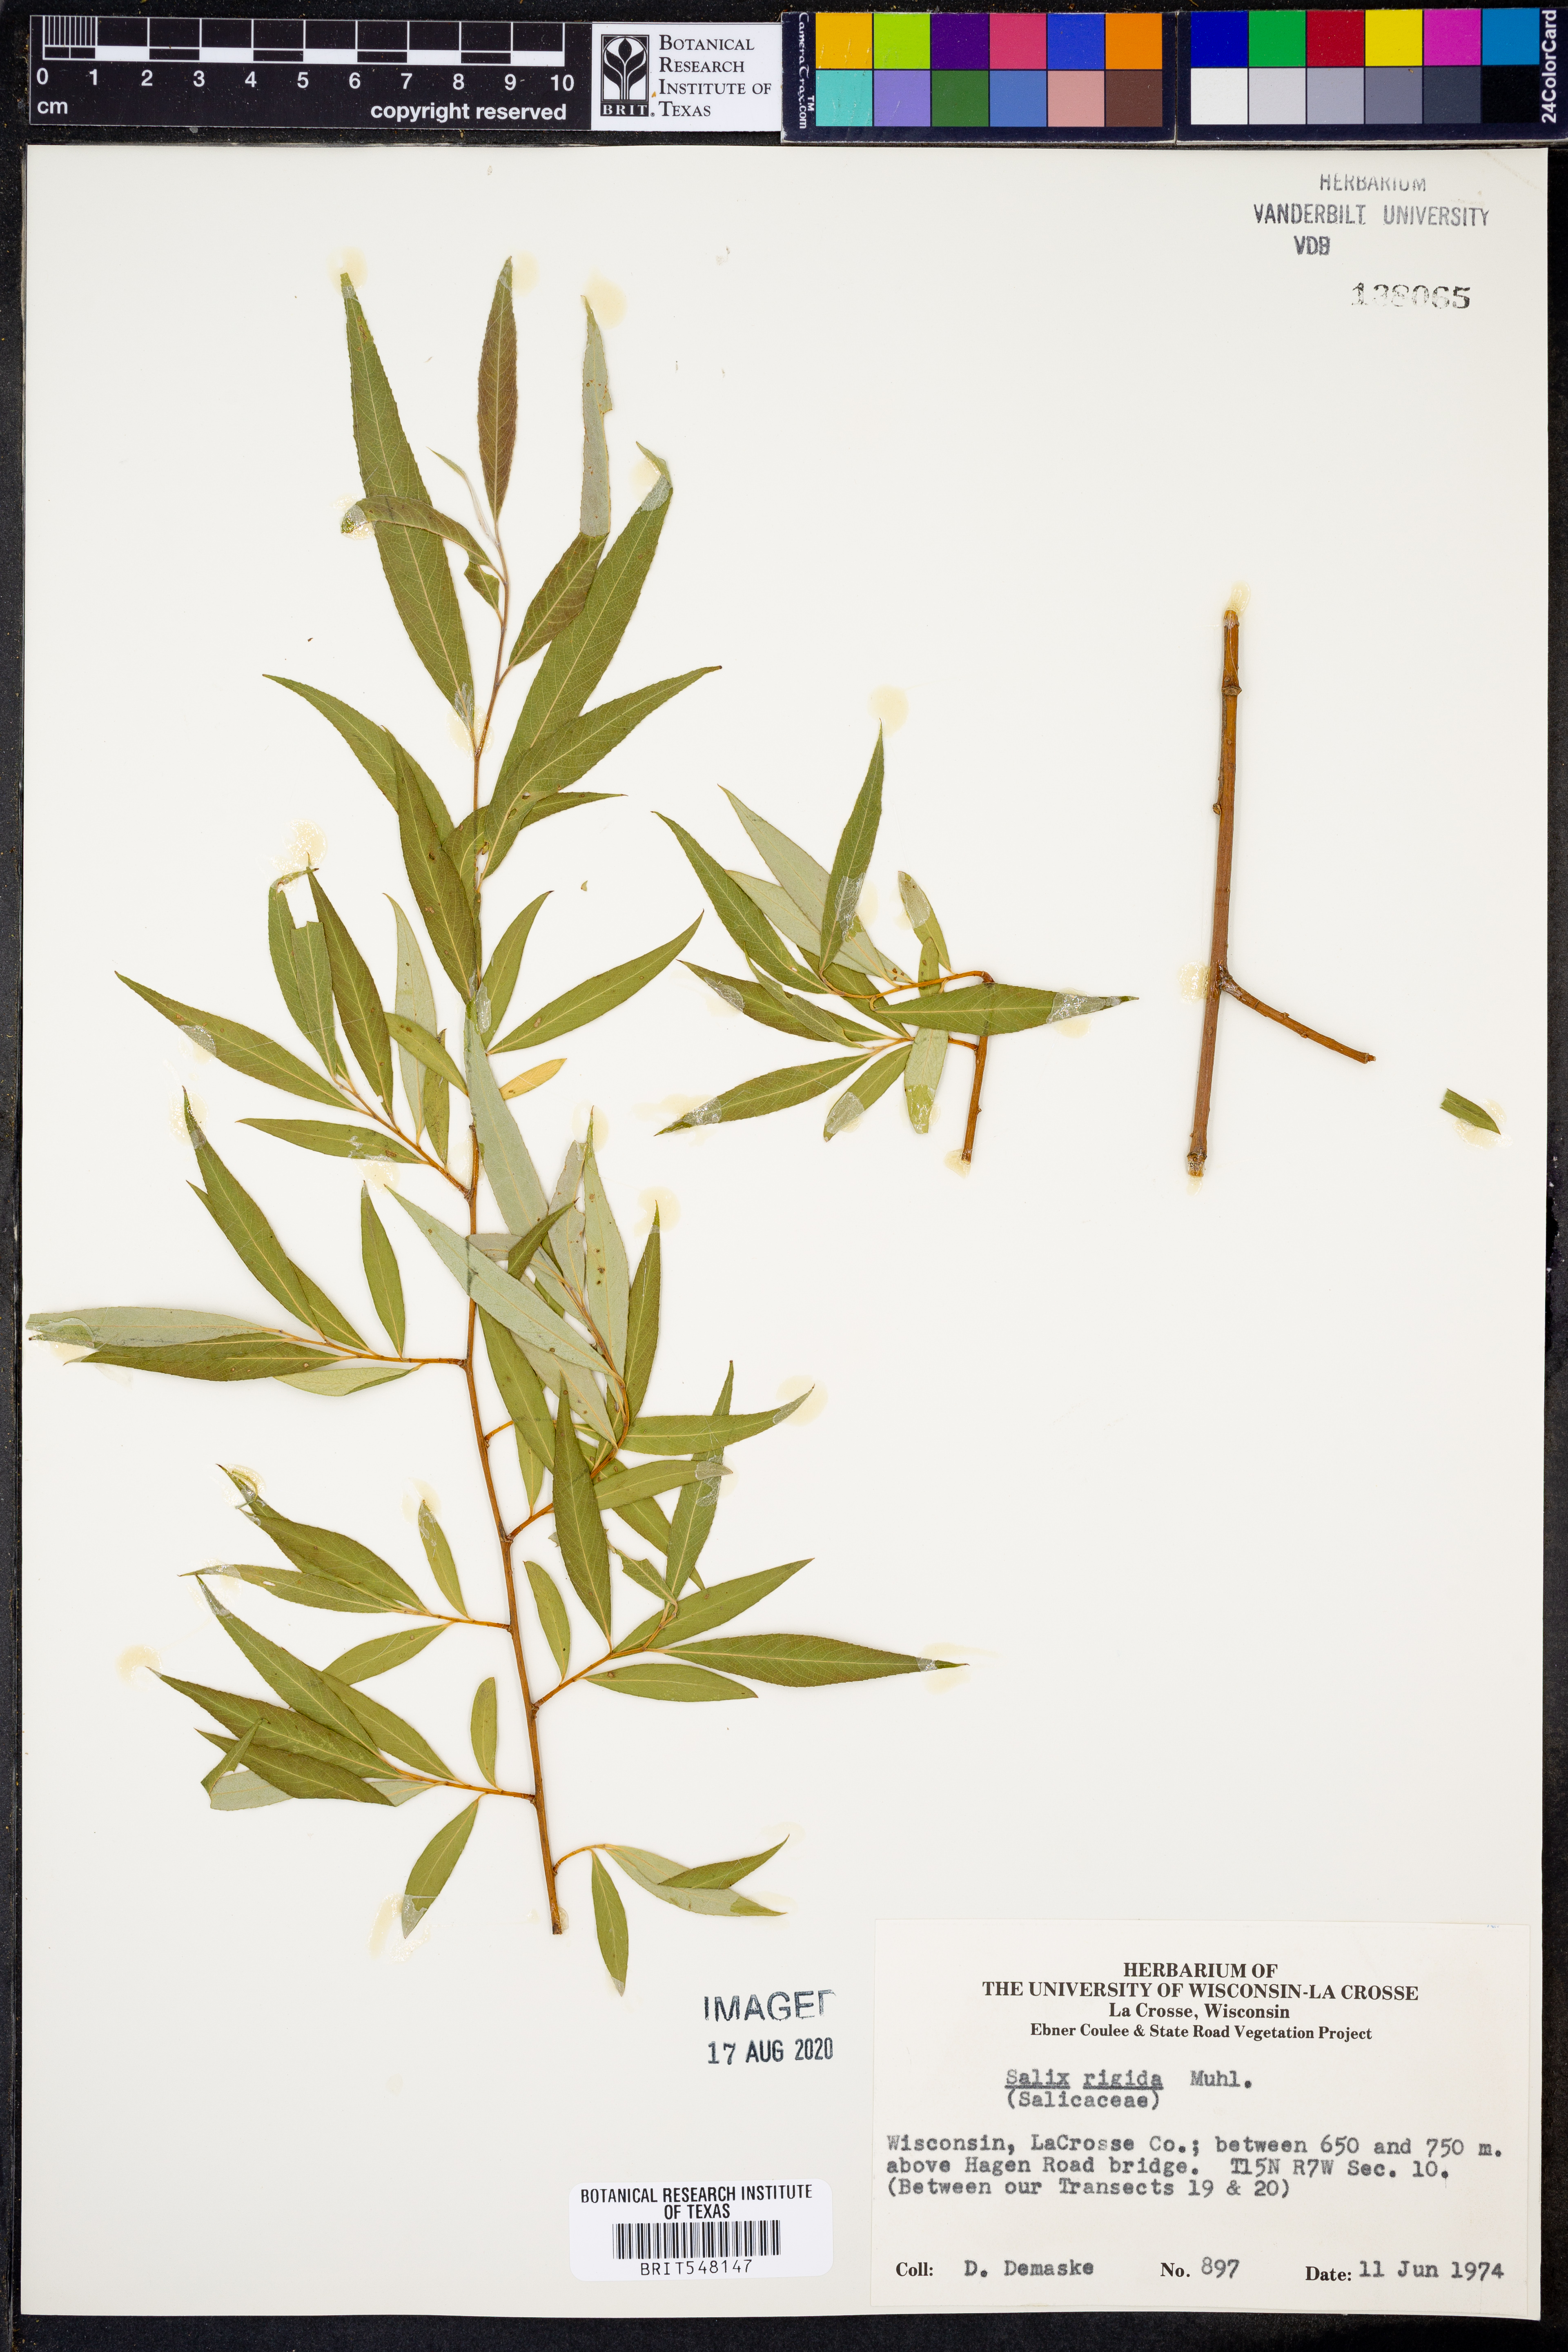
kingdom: Plantae
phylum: Tracheophyta
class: Magnoliopsida
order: Malpighiales
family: Salicaceae
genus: Salix
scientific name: Salix eriocephala
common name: Heart-leaved willow
